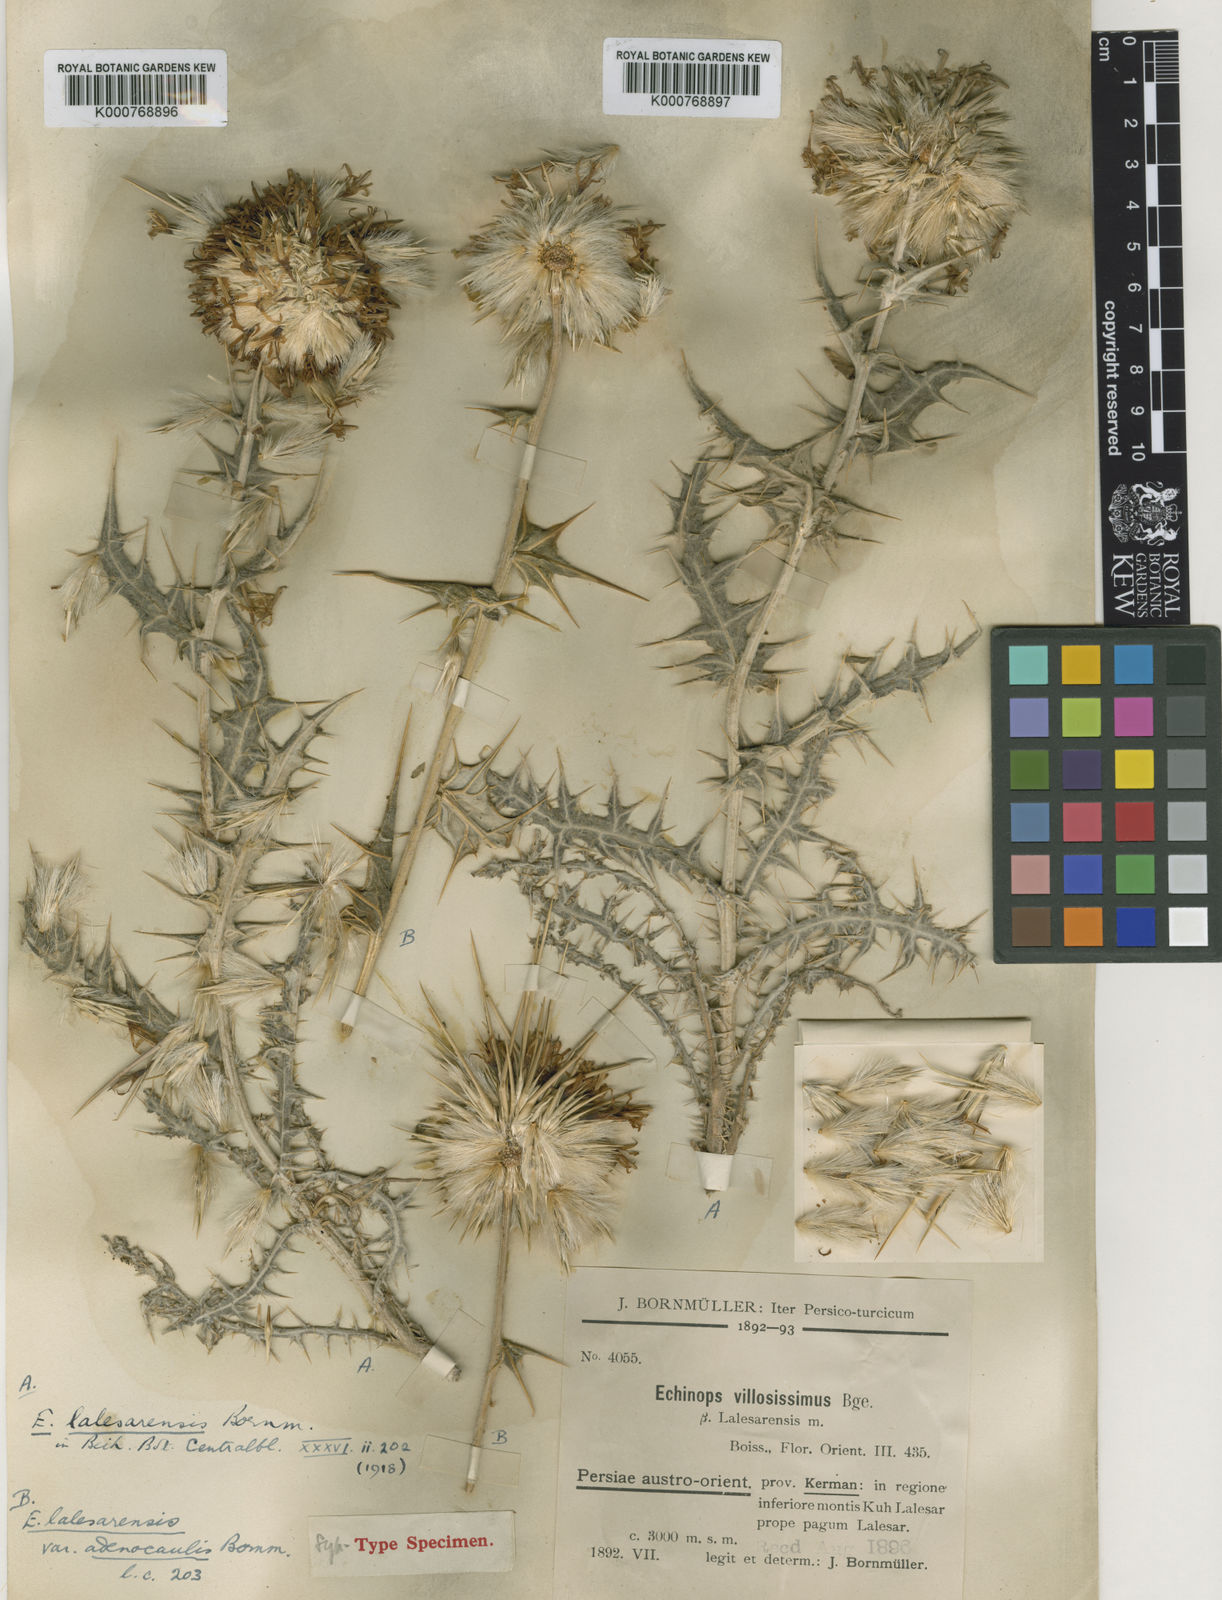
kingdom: Plantae
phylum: Tracheophyta
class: Magnoliopsida
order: Asterales
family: Asteraceae
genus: Echinops
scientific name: Echinops lalesarensis
